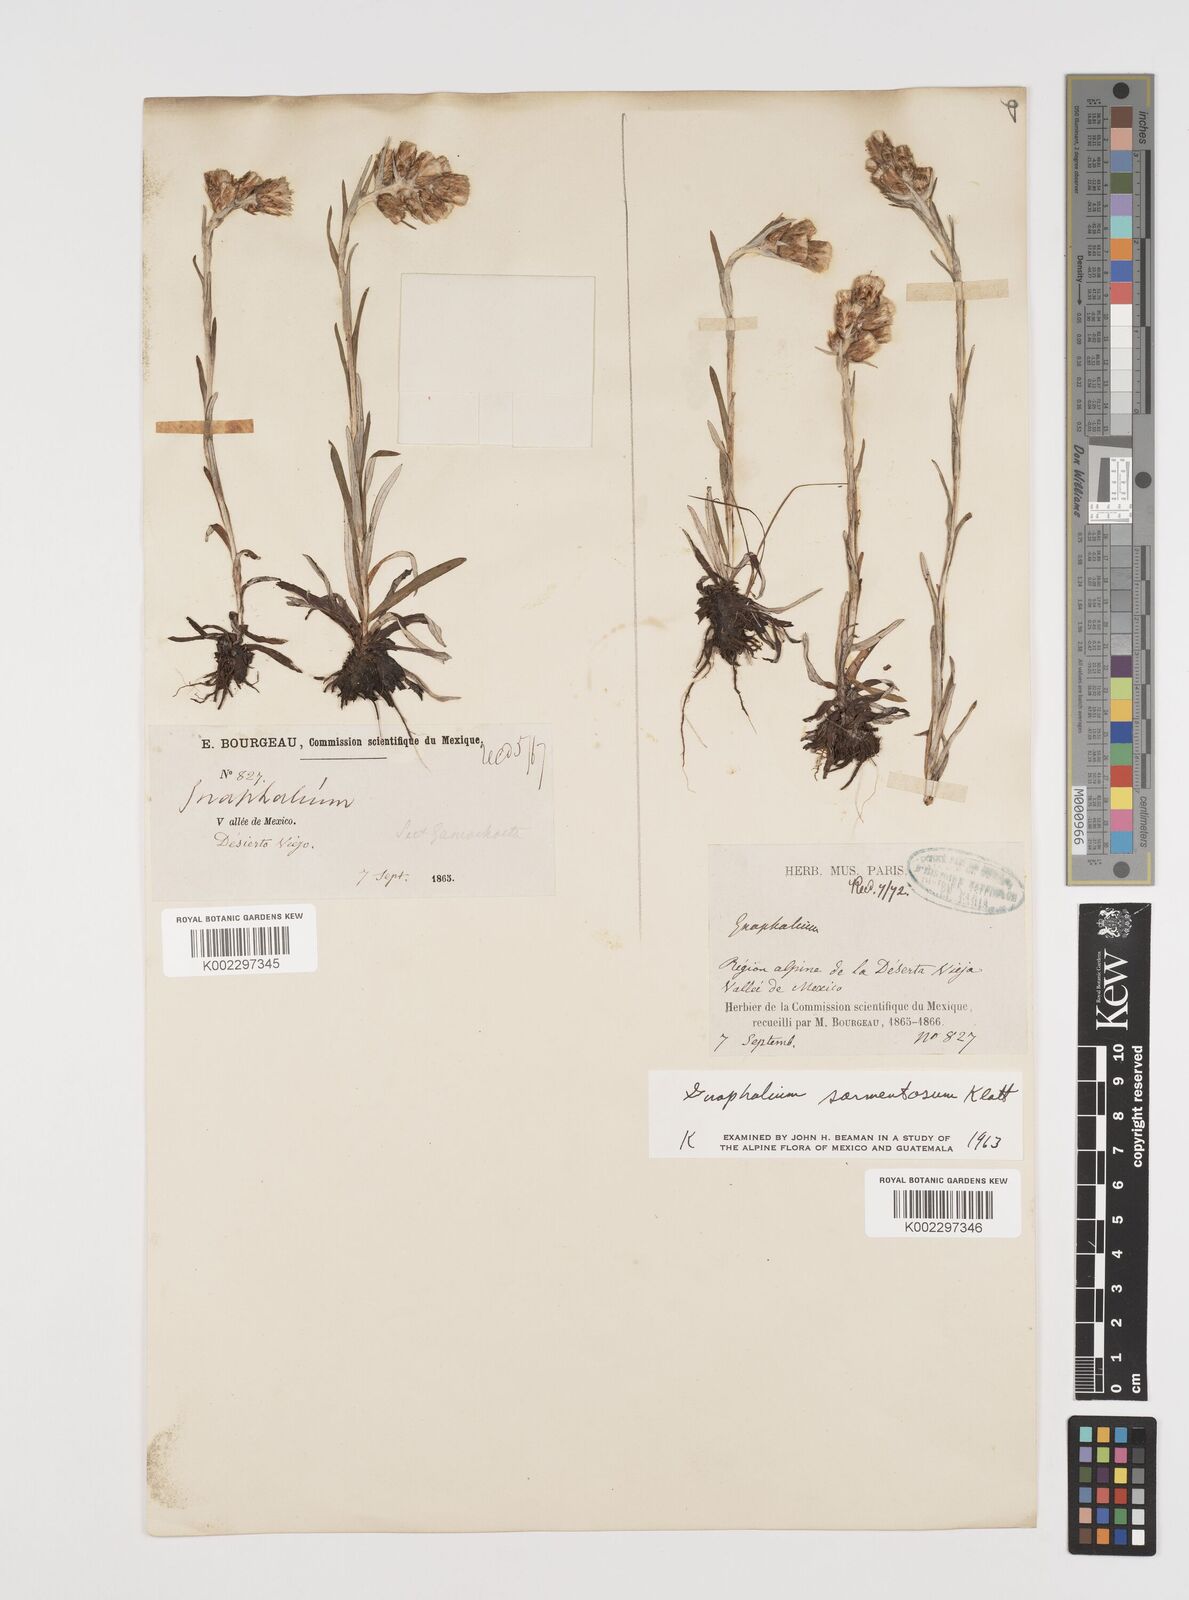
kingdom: Plantae
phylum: Tracheophyta
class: Magnoliopsida
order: Asterales
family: Asteraceae
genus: Mexerion
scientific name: Mexerion sarmentosum
